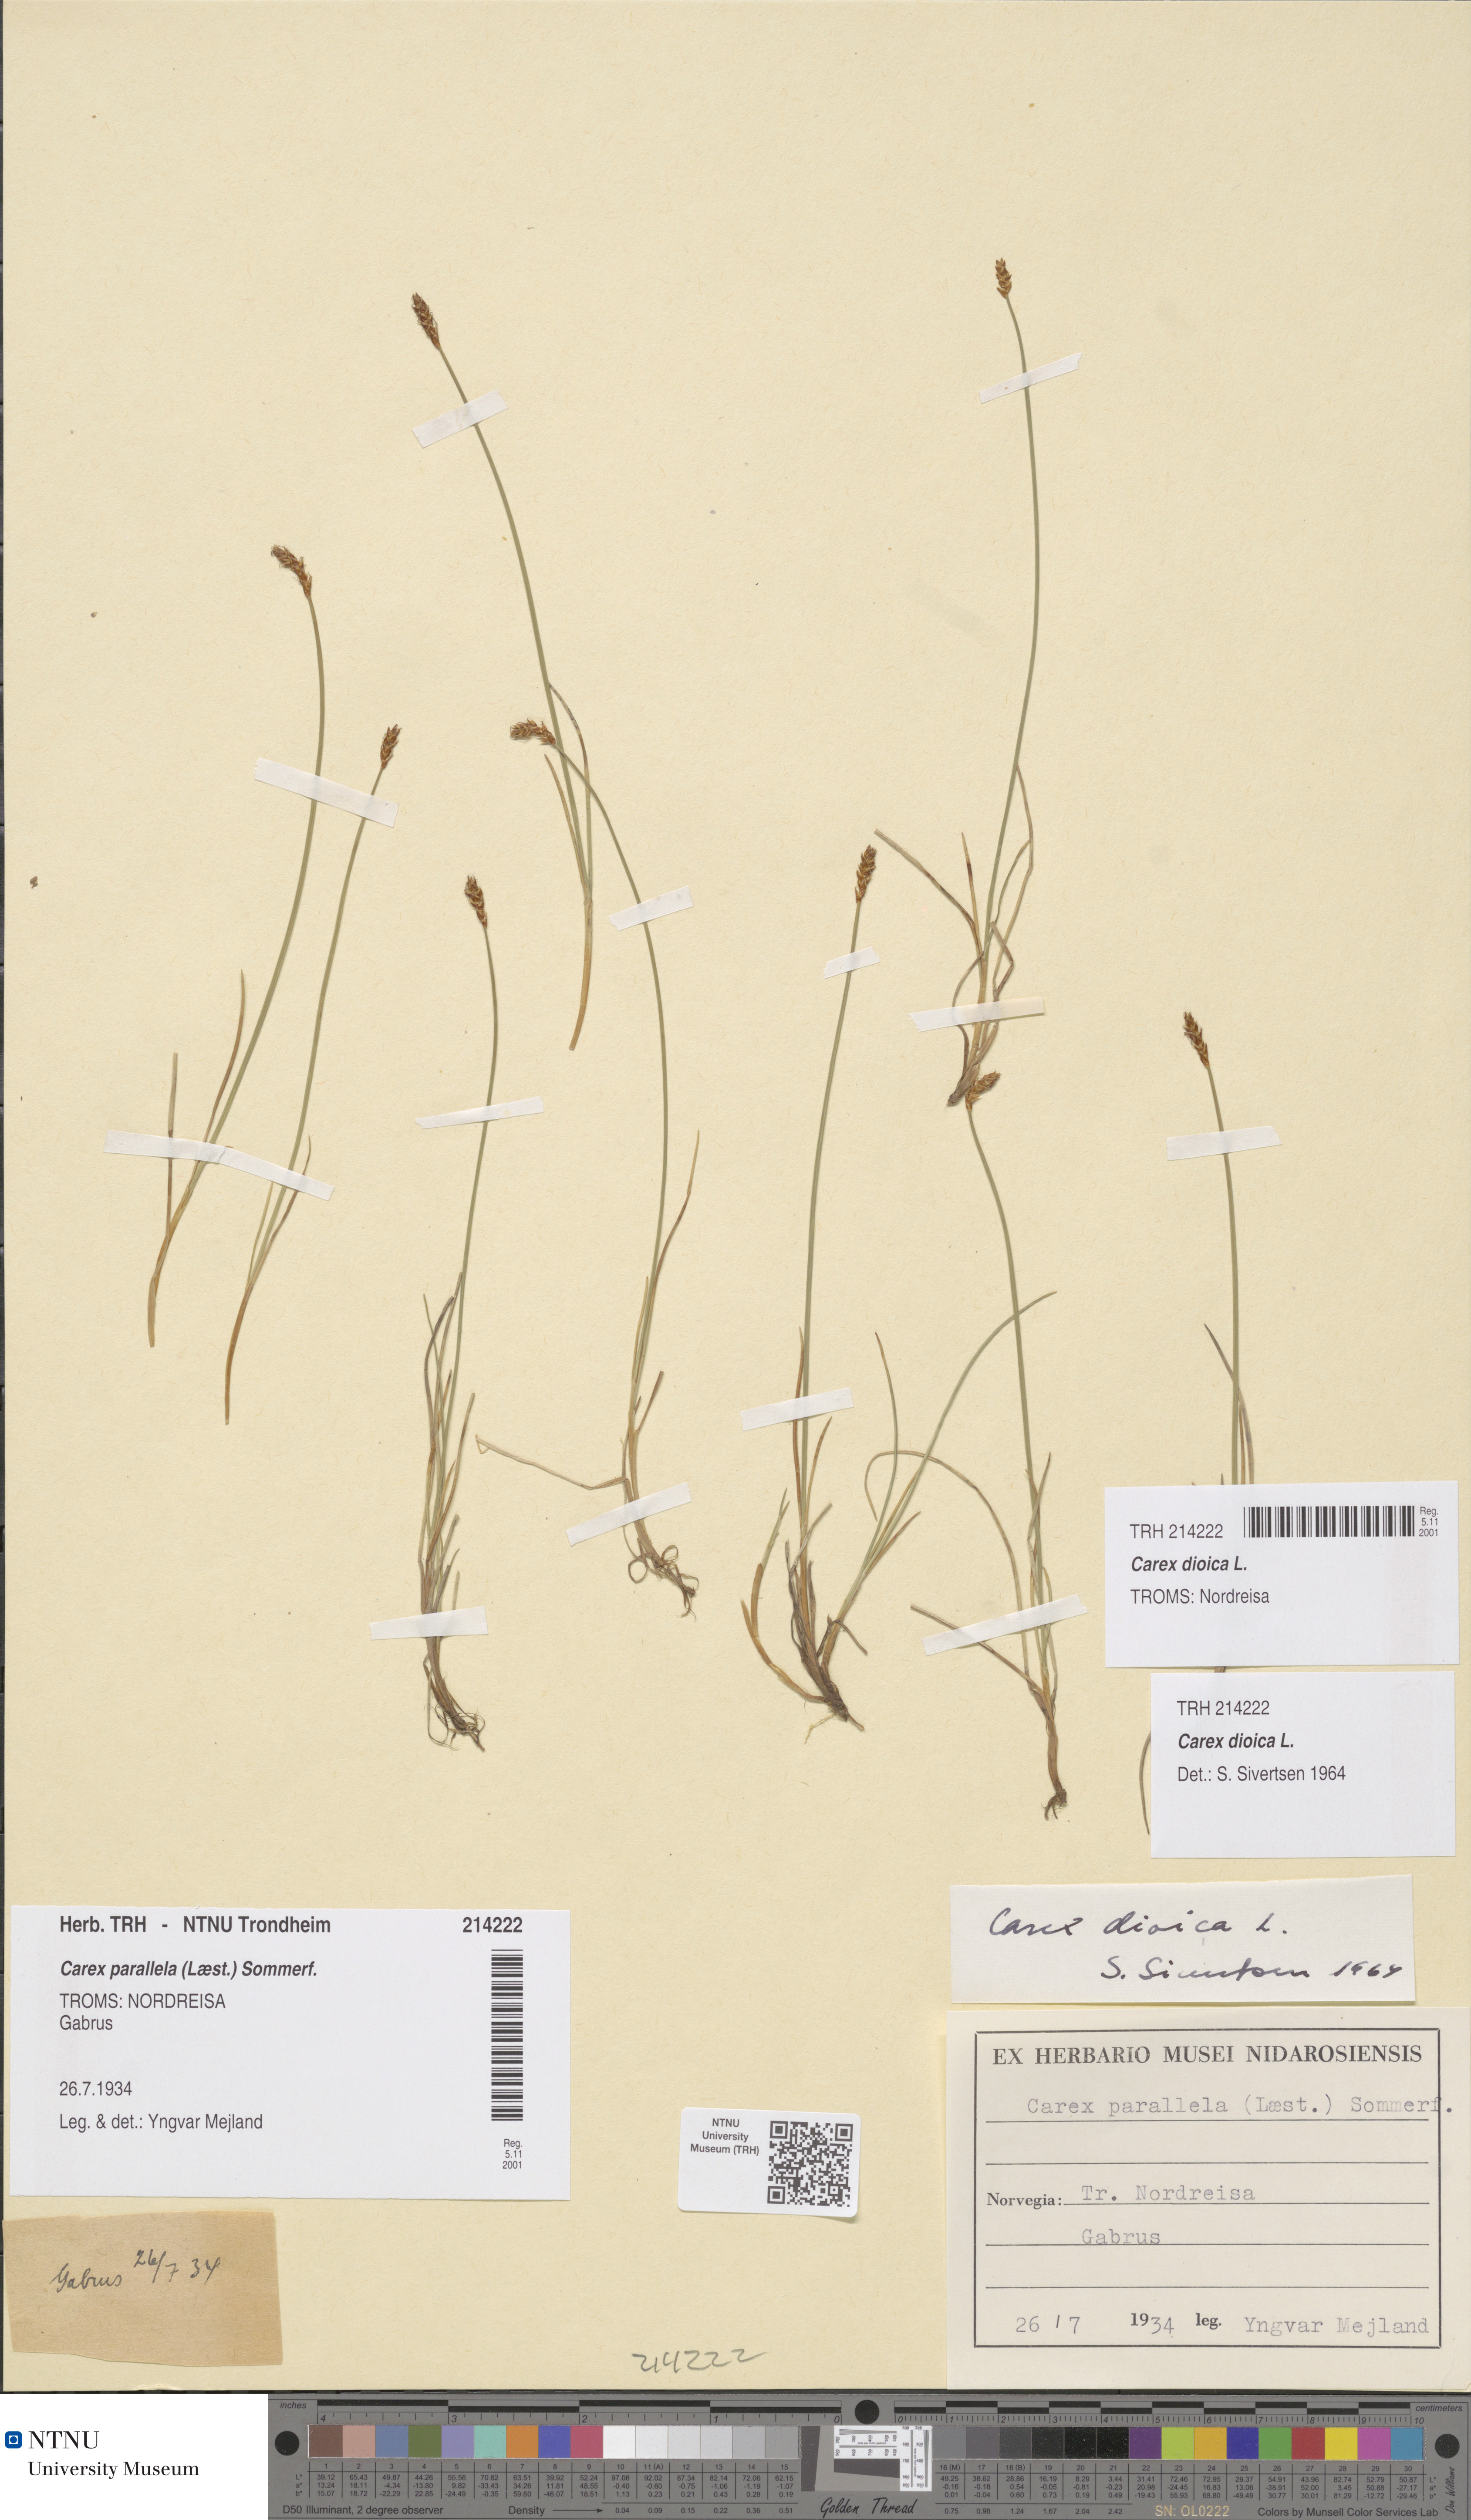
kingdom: Plantae
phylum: Tracheophyta
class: Liliopsida
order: Poales
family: Cyperaceae
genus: Carex
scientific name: Carex dioica
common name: Dioecious sedge
